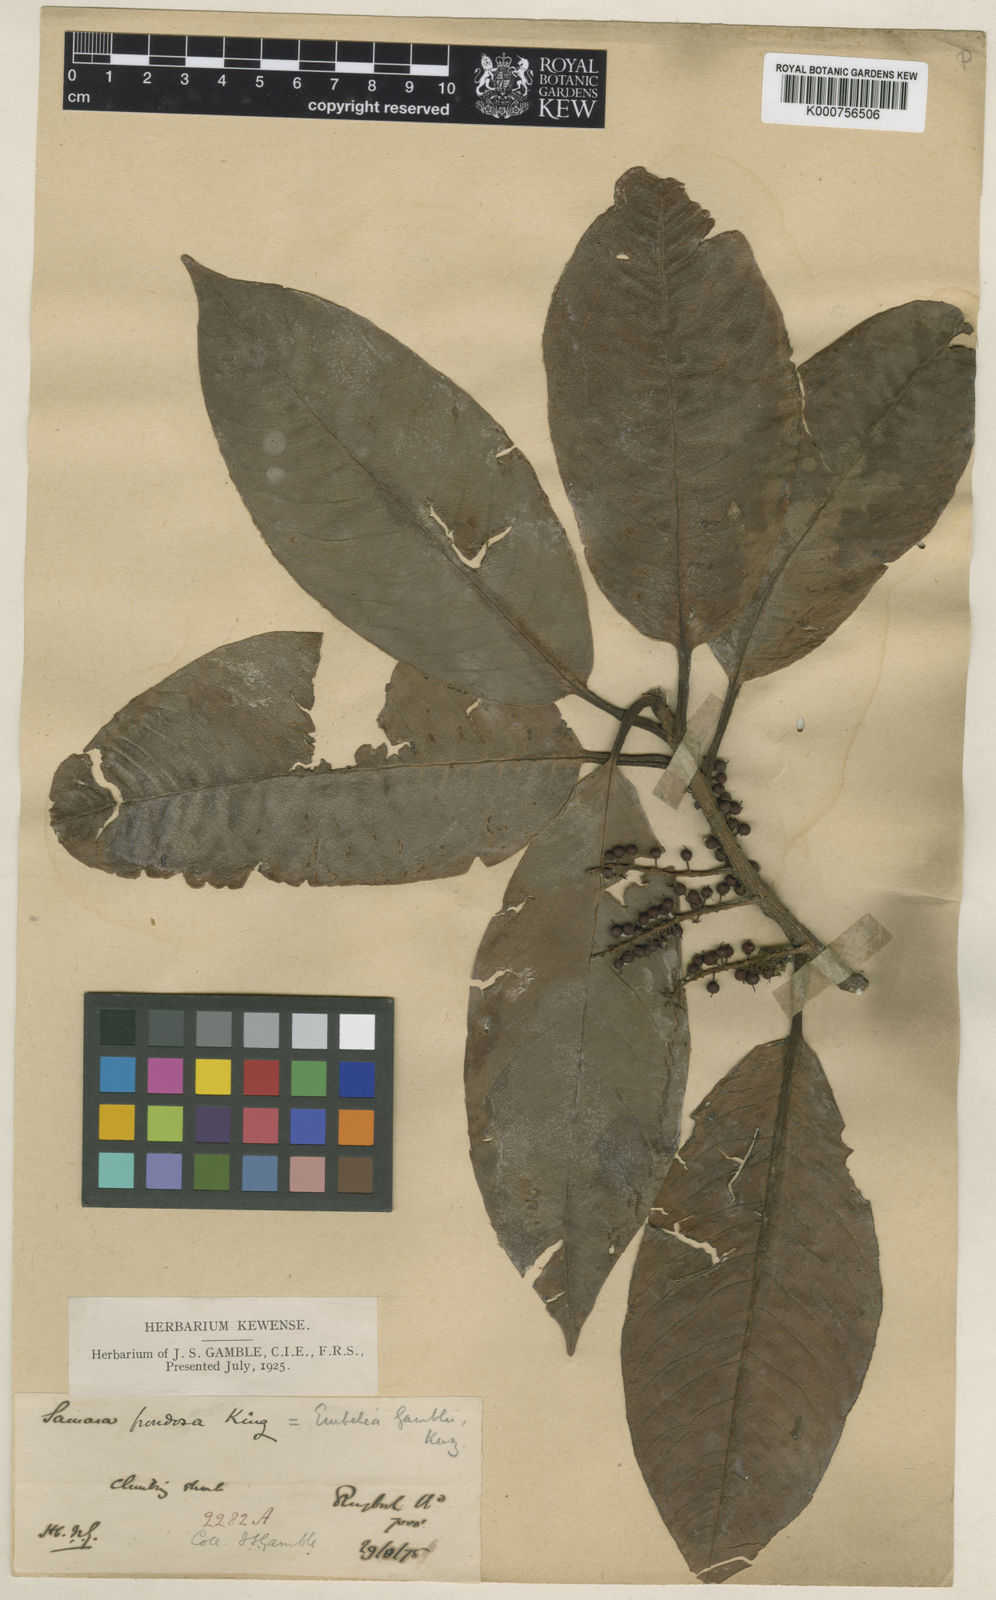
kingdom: Plantae
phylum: Tracheophyta
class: Magnoliopsida
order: Ericales
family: Primulaceae
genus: Embelia
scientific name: Embelia frondosa
